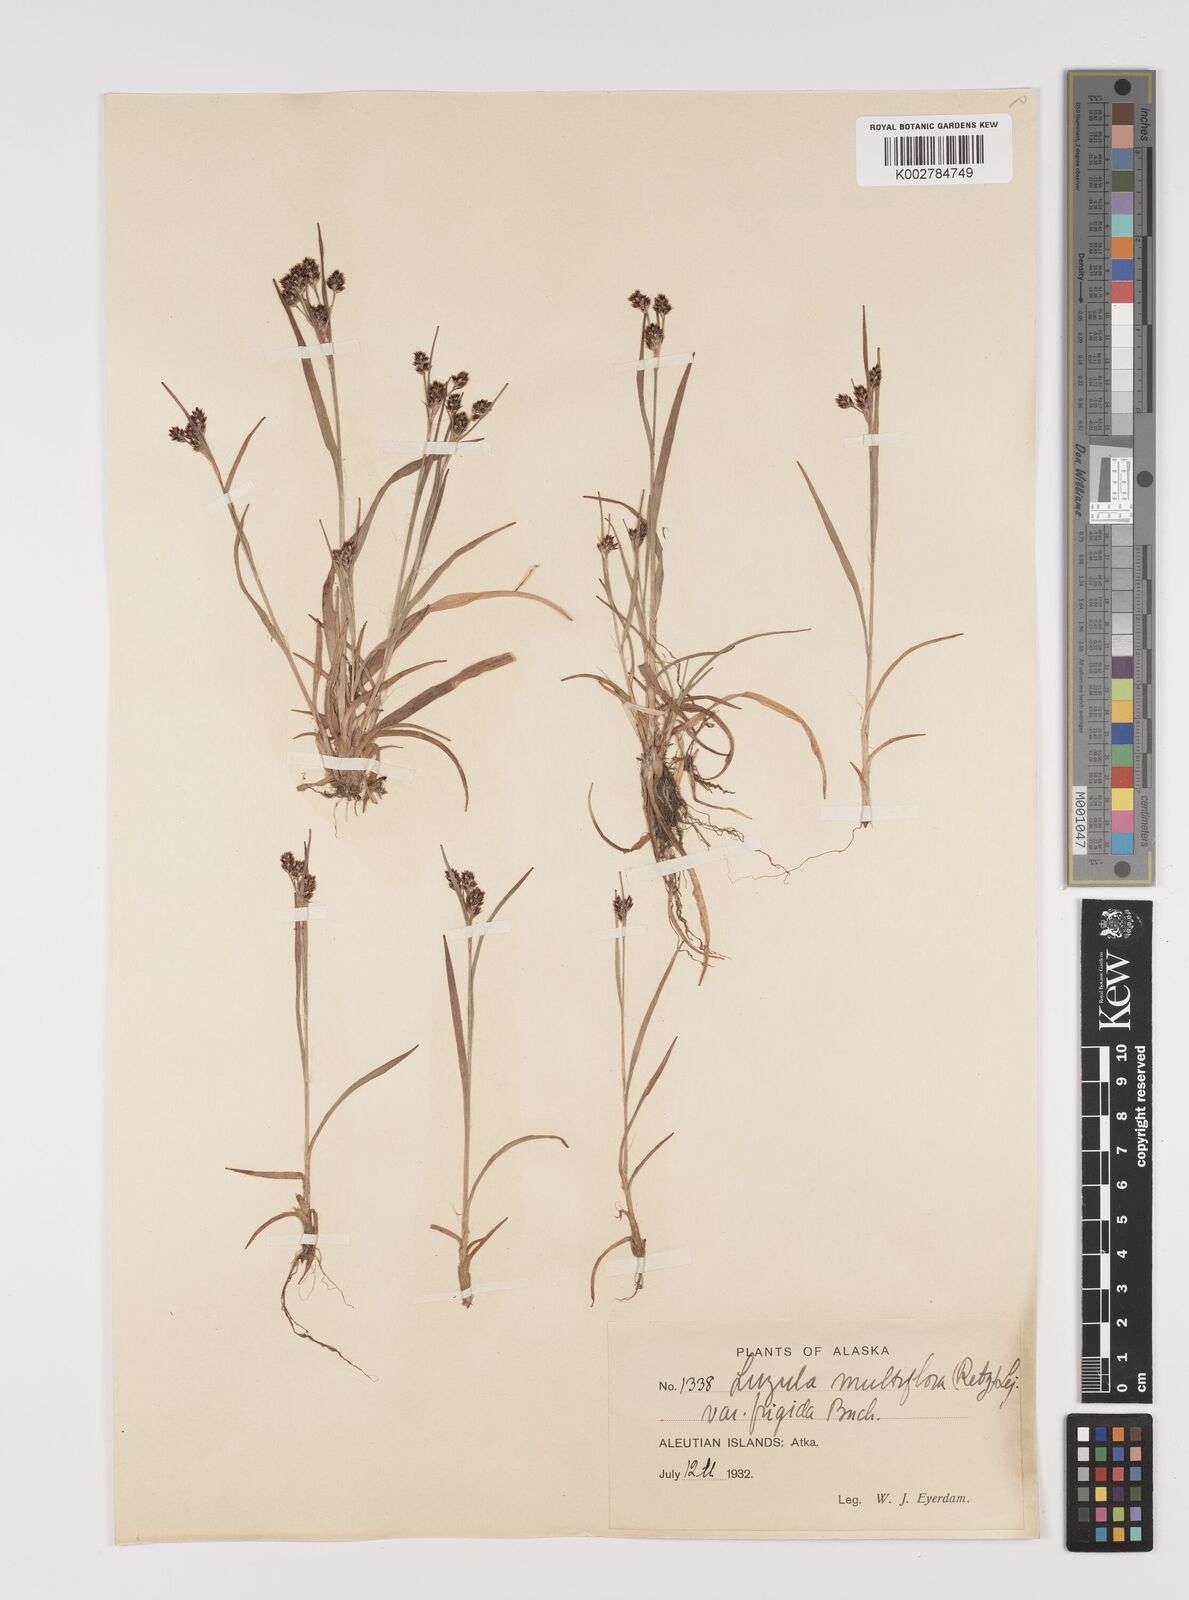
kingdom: Plantae
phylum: Tracheophyta
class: Liliopsida
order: Poales
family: Juncaceae
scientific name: Juncaceae
